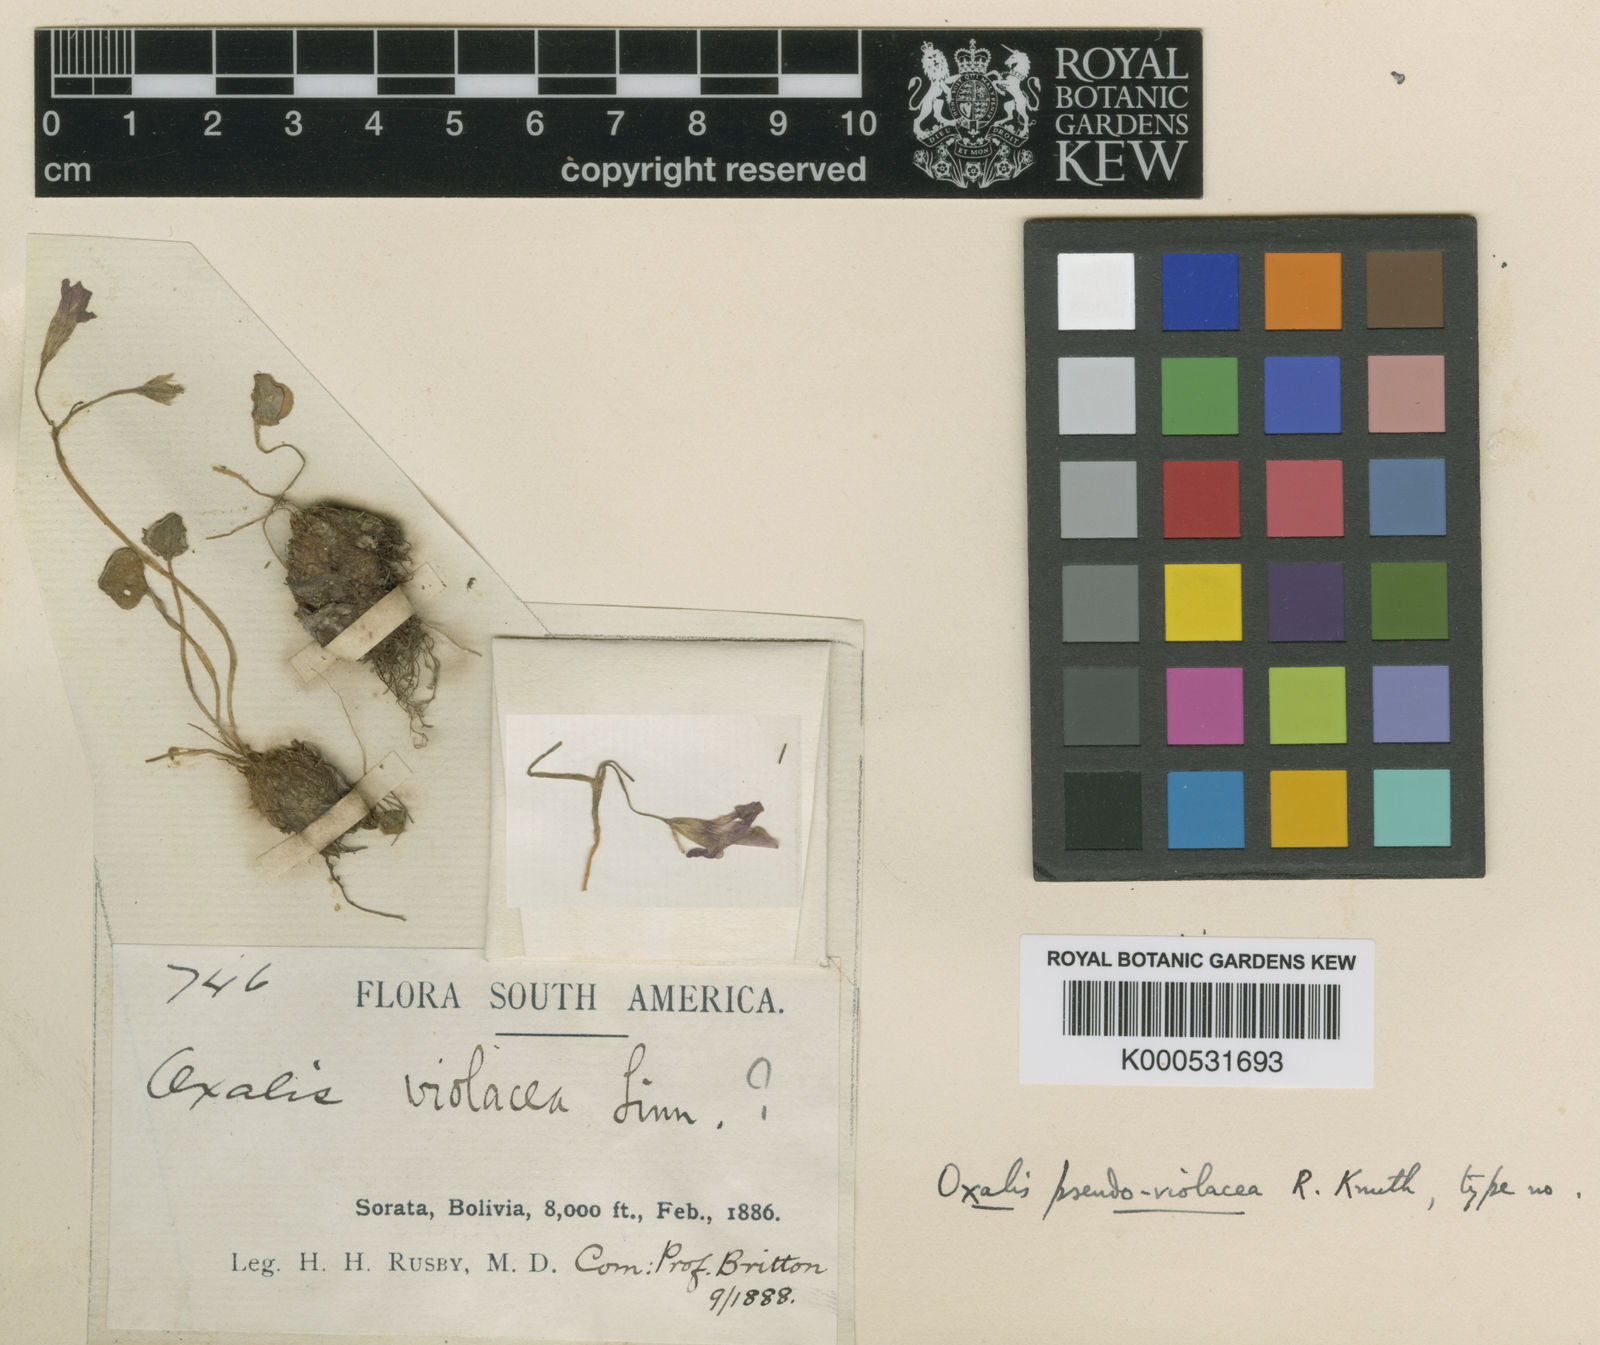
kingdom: Plantae
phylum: Tracheophyta
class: Magnoliopsida
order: Oxalidales
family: Oxalidaceae
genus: Oxalis
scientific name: Oxalis pseudoviolacea
